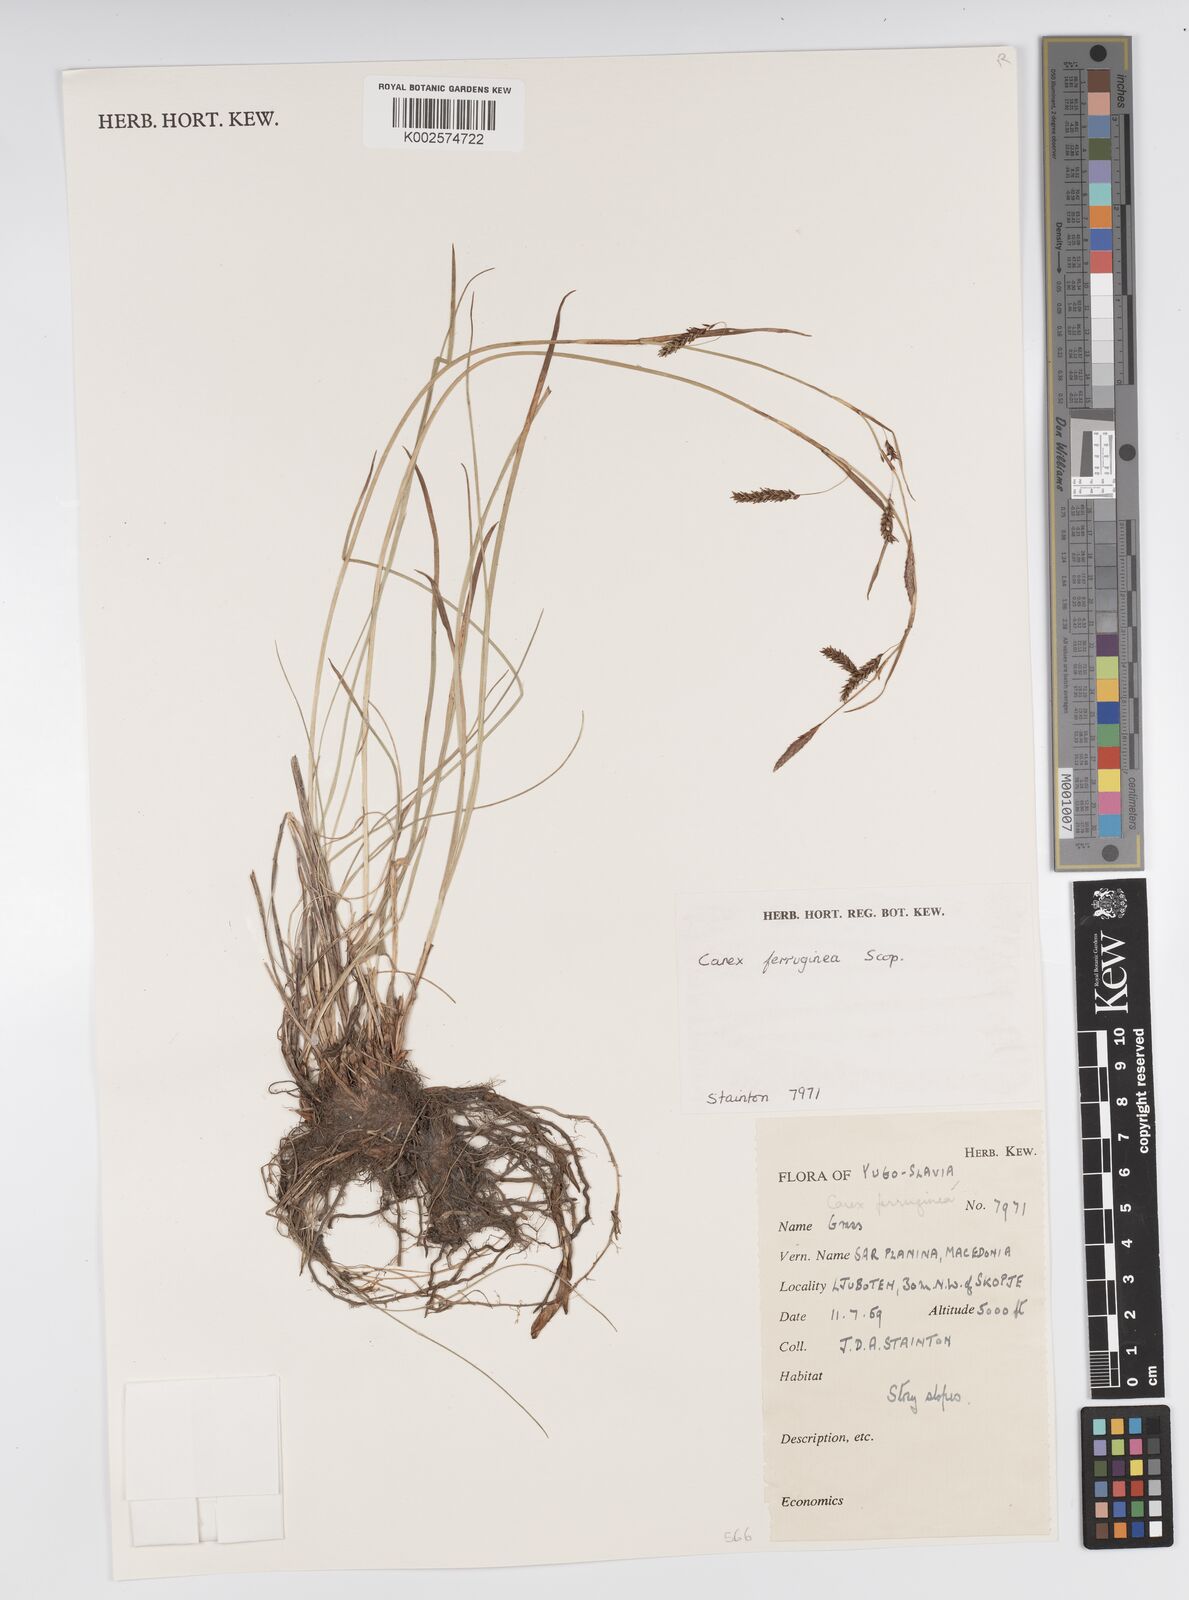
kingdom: Plantae
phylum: Tracheophyta
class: Liliopsida
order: Poales
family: Cyperaceae
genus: Carex
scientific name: Carex ferruginea
